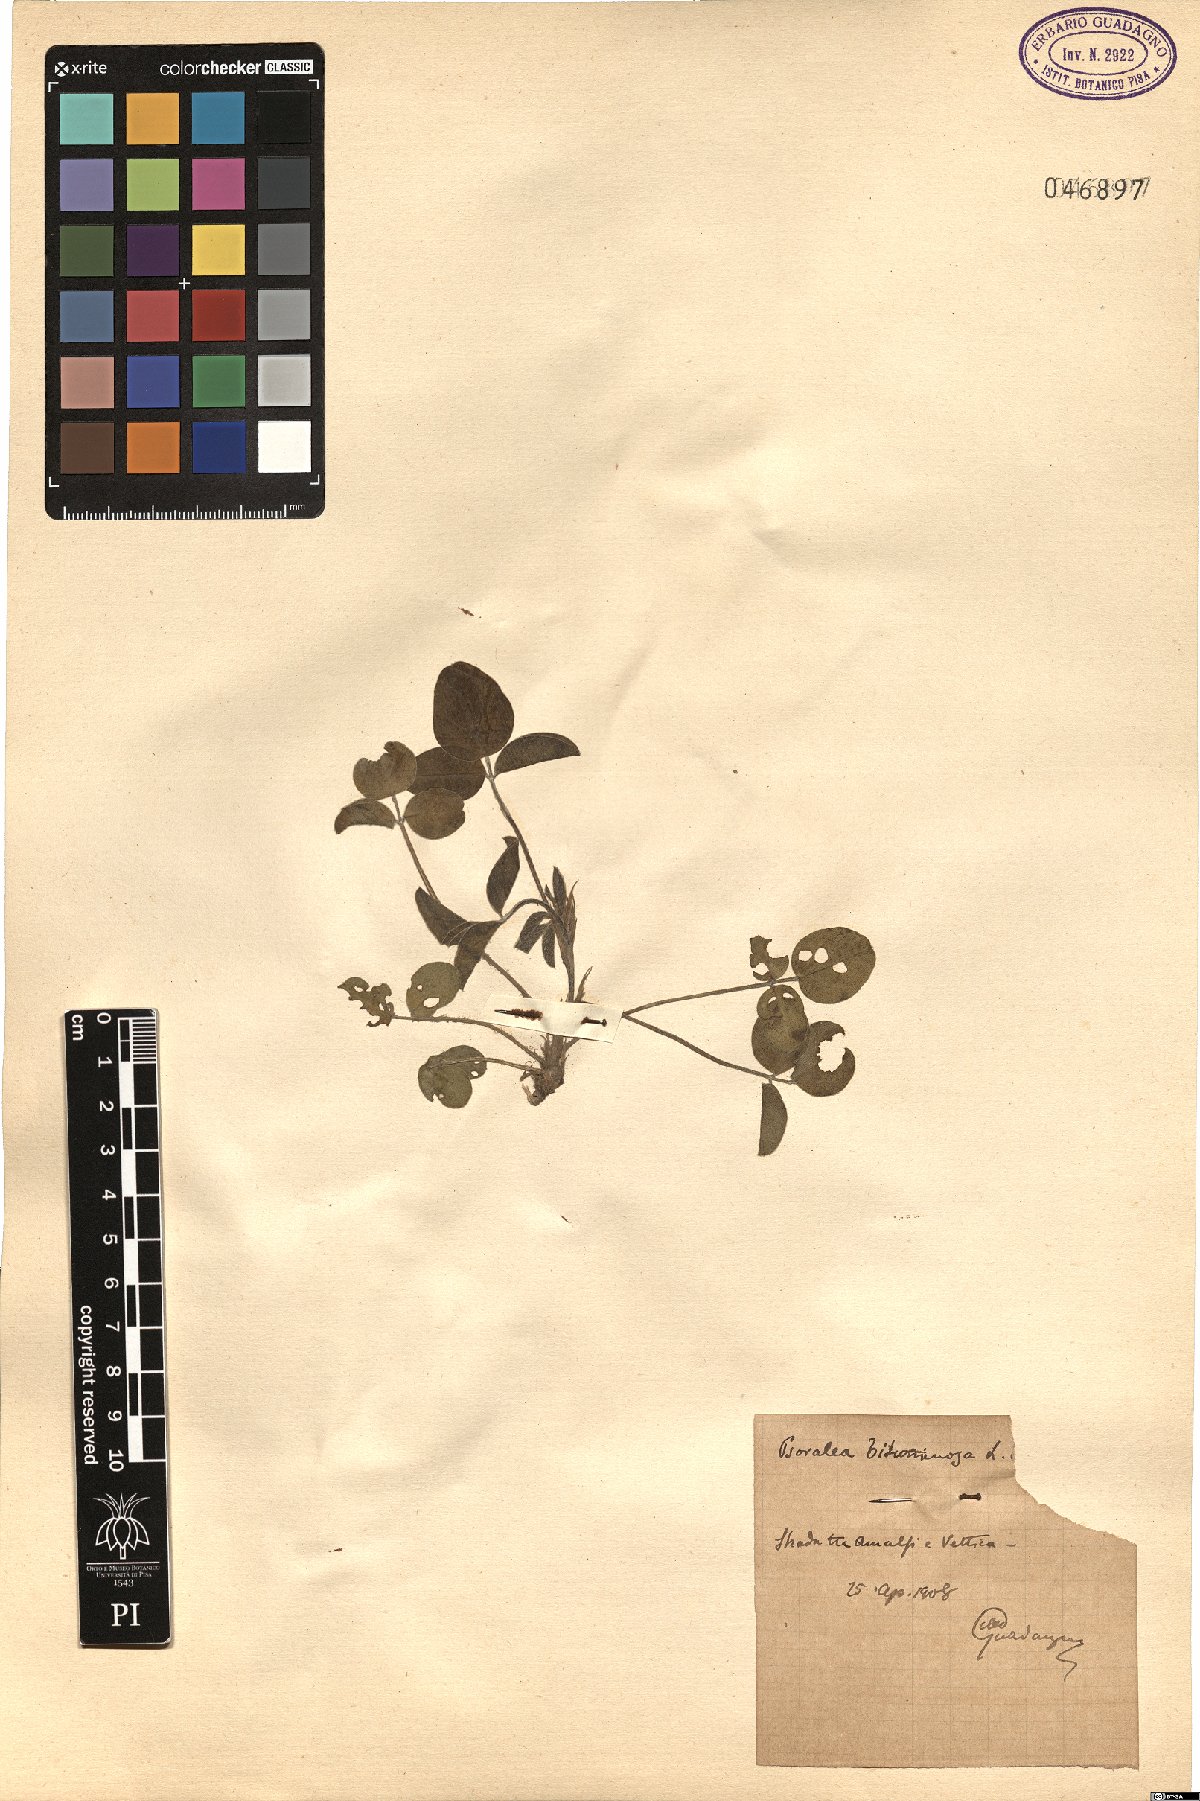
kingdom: Plantae
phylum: Tracheophyta
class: Magnoliopsida
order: Fabales
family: Fabaceae
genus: Bituminaria
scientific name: Bituminaria bituminosa
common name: Arabian pea
